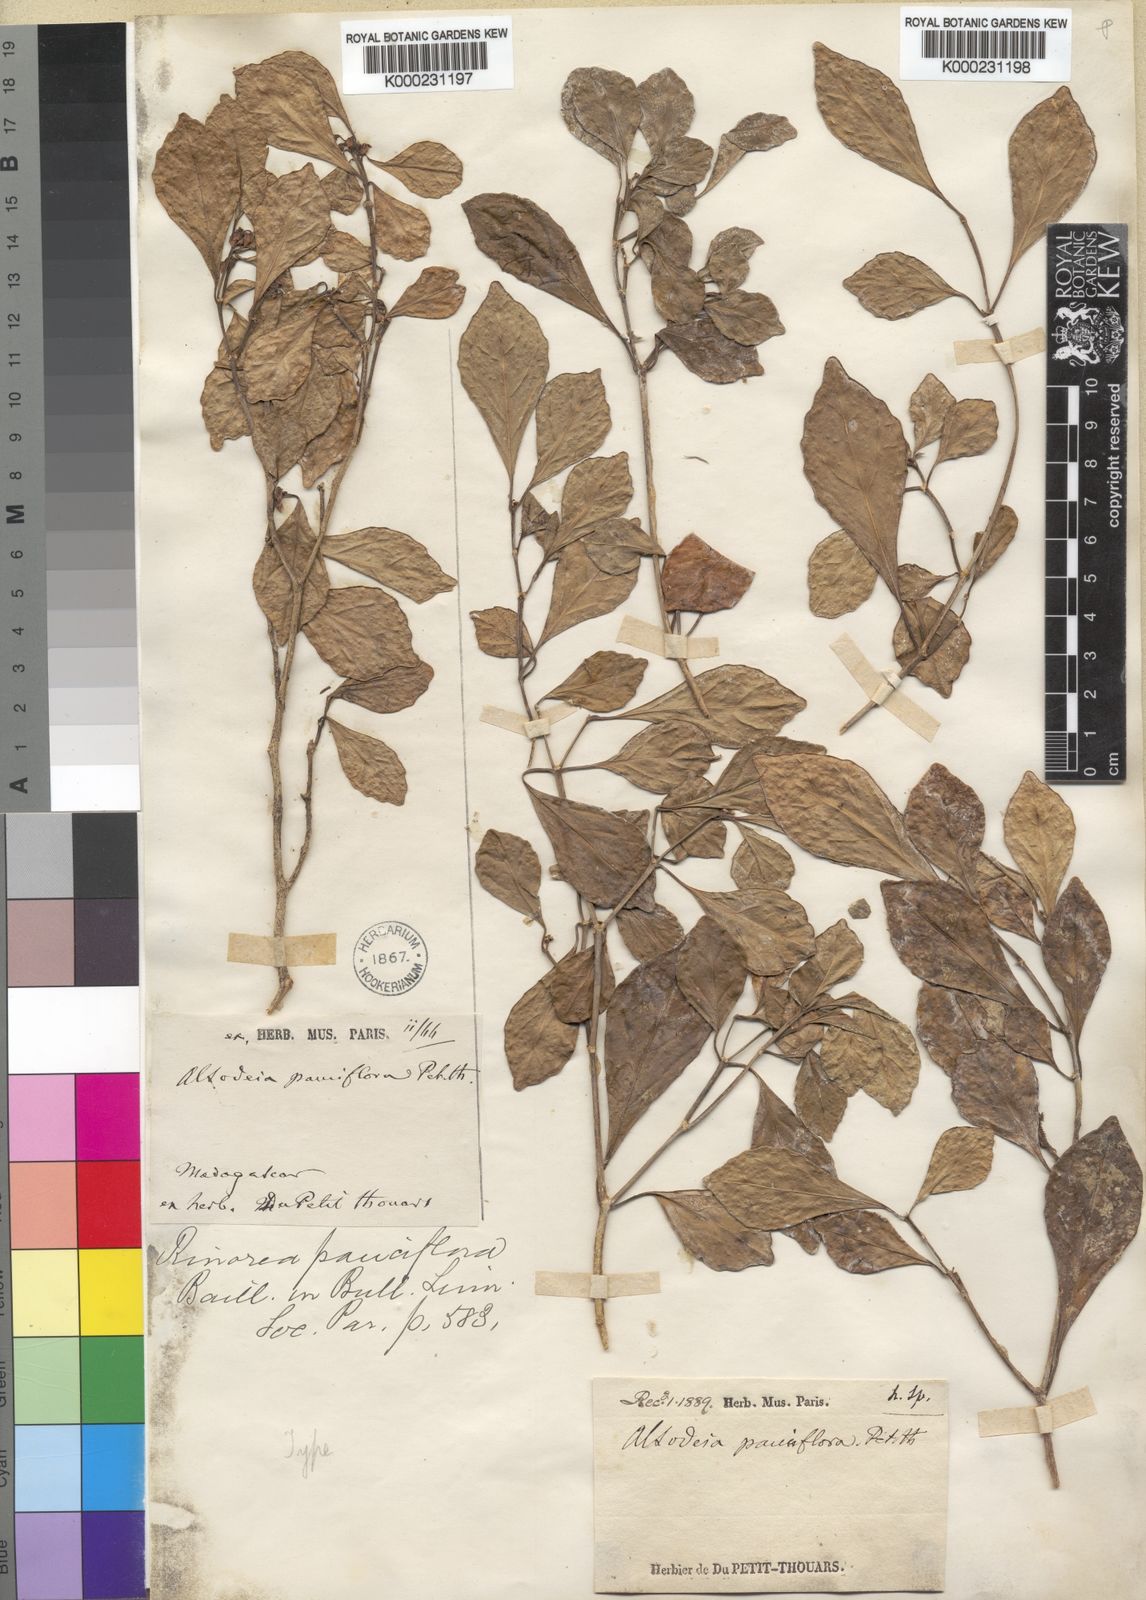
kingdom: Plantae
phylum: Tracheophyta
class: Magnoliopsida
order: Malpighiales
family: Violaceae
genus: Rinorea
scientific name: Rinorea pauciflora
